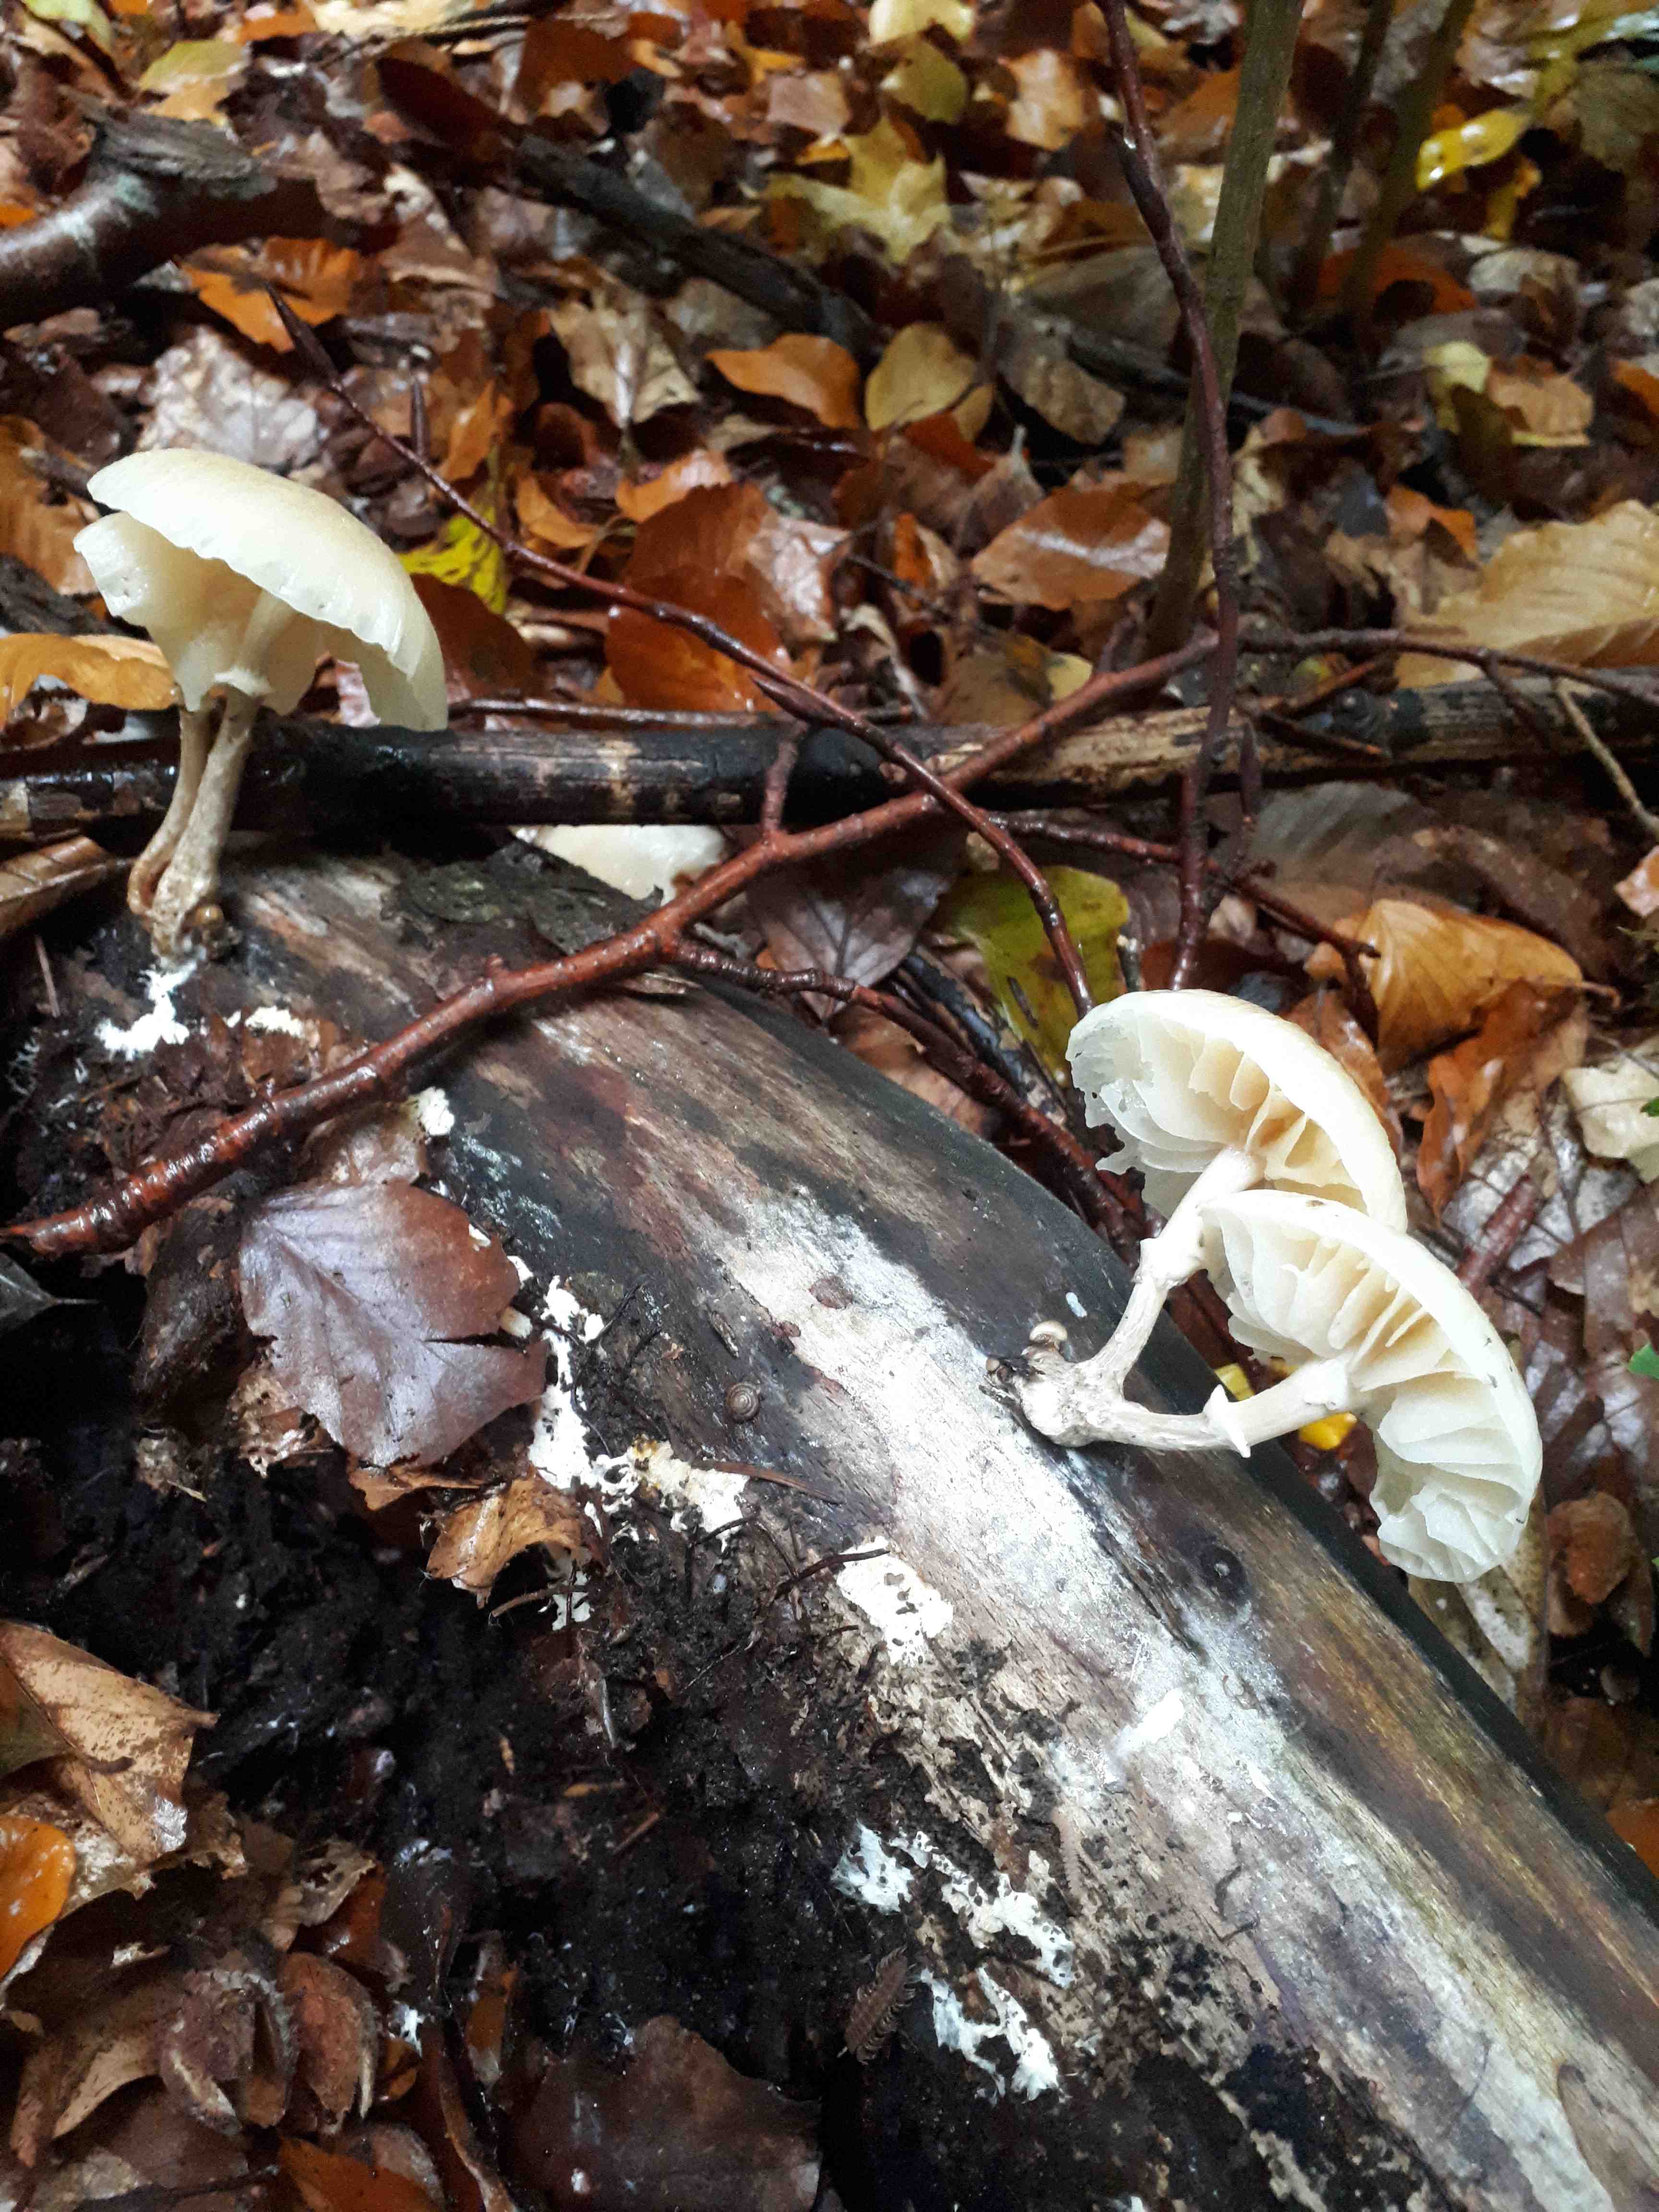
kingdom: Fungi
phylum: Basidiomycota
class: Agaricomycetes
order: Agaricales
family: Physalacriaceae
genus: Mucidula
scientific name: Mucidula mucida
